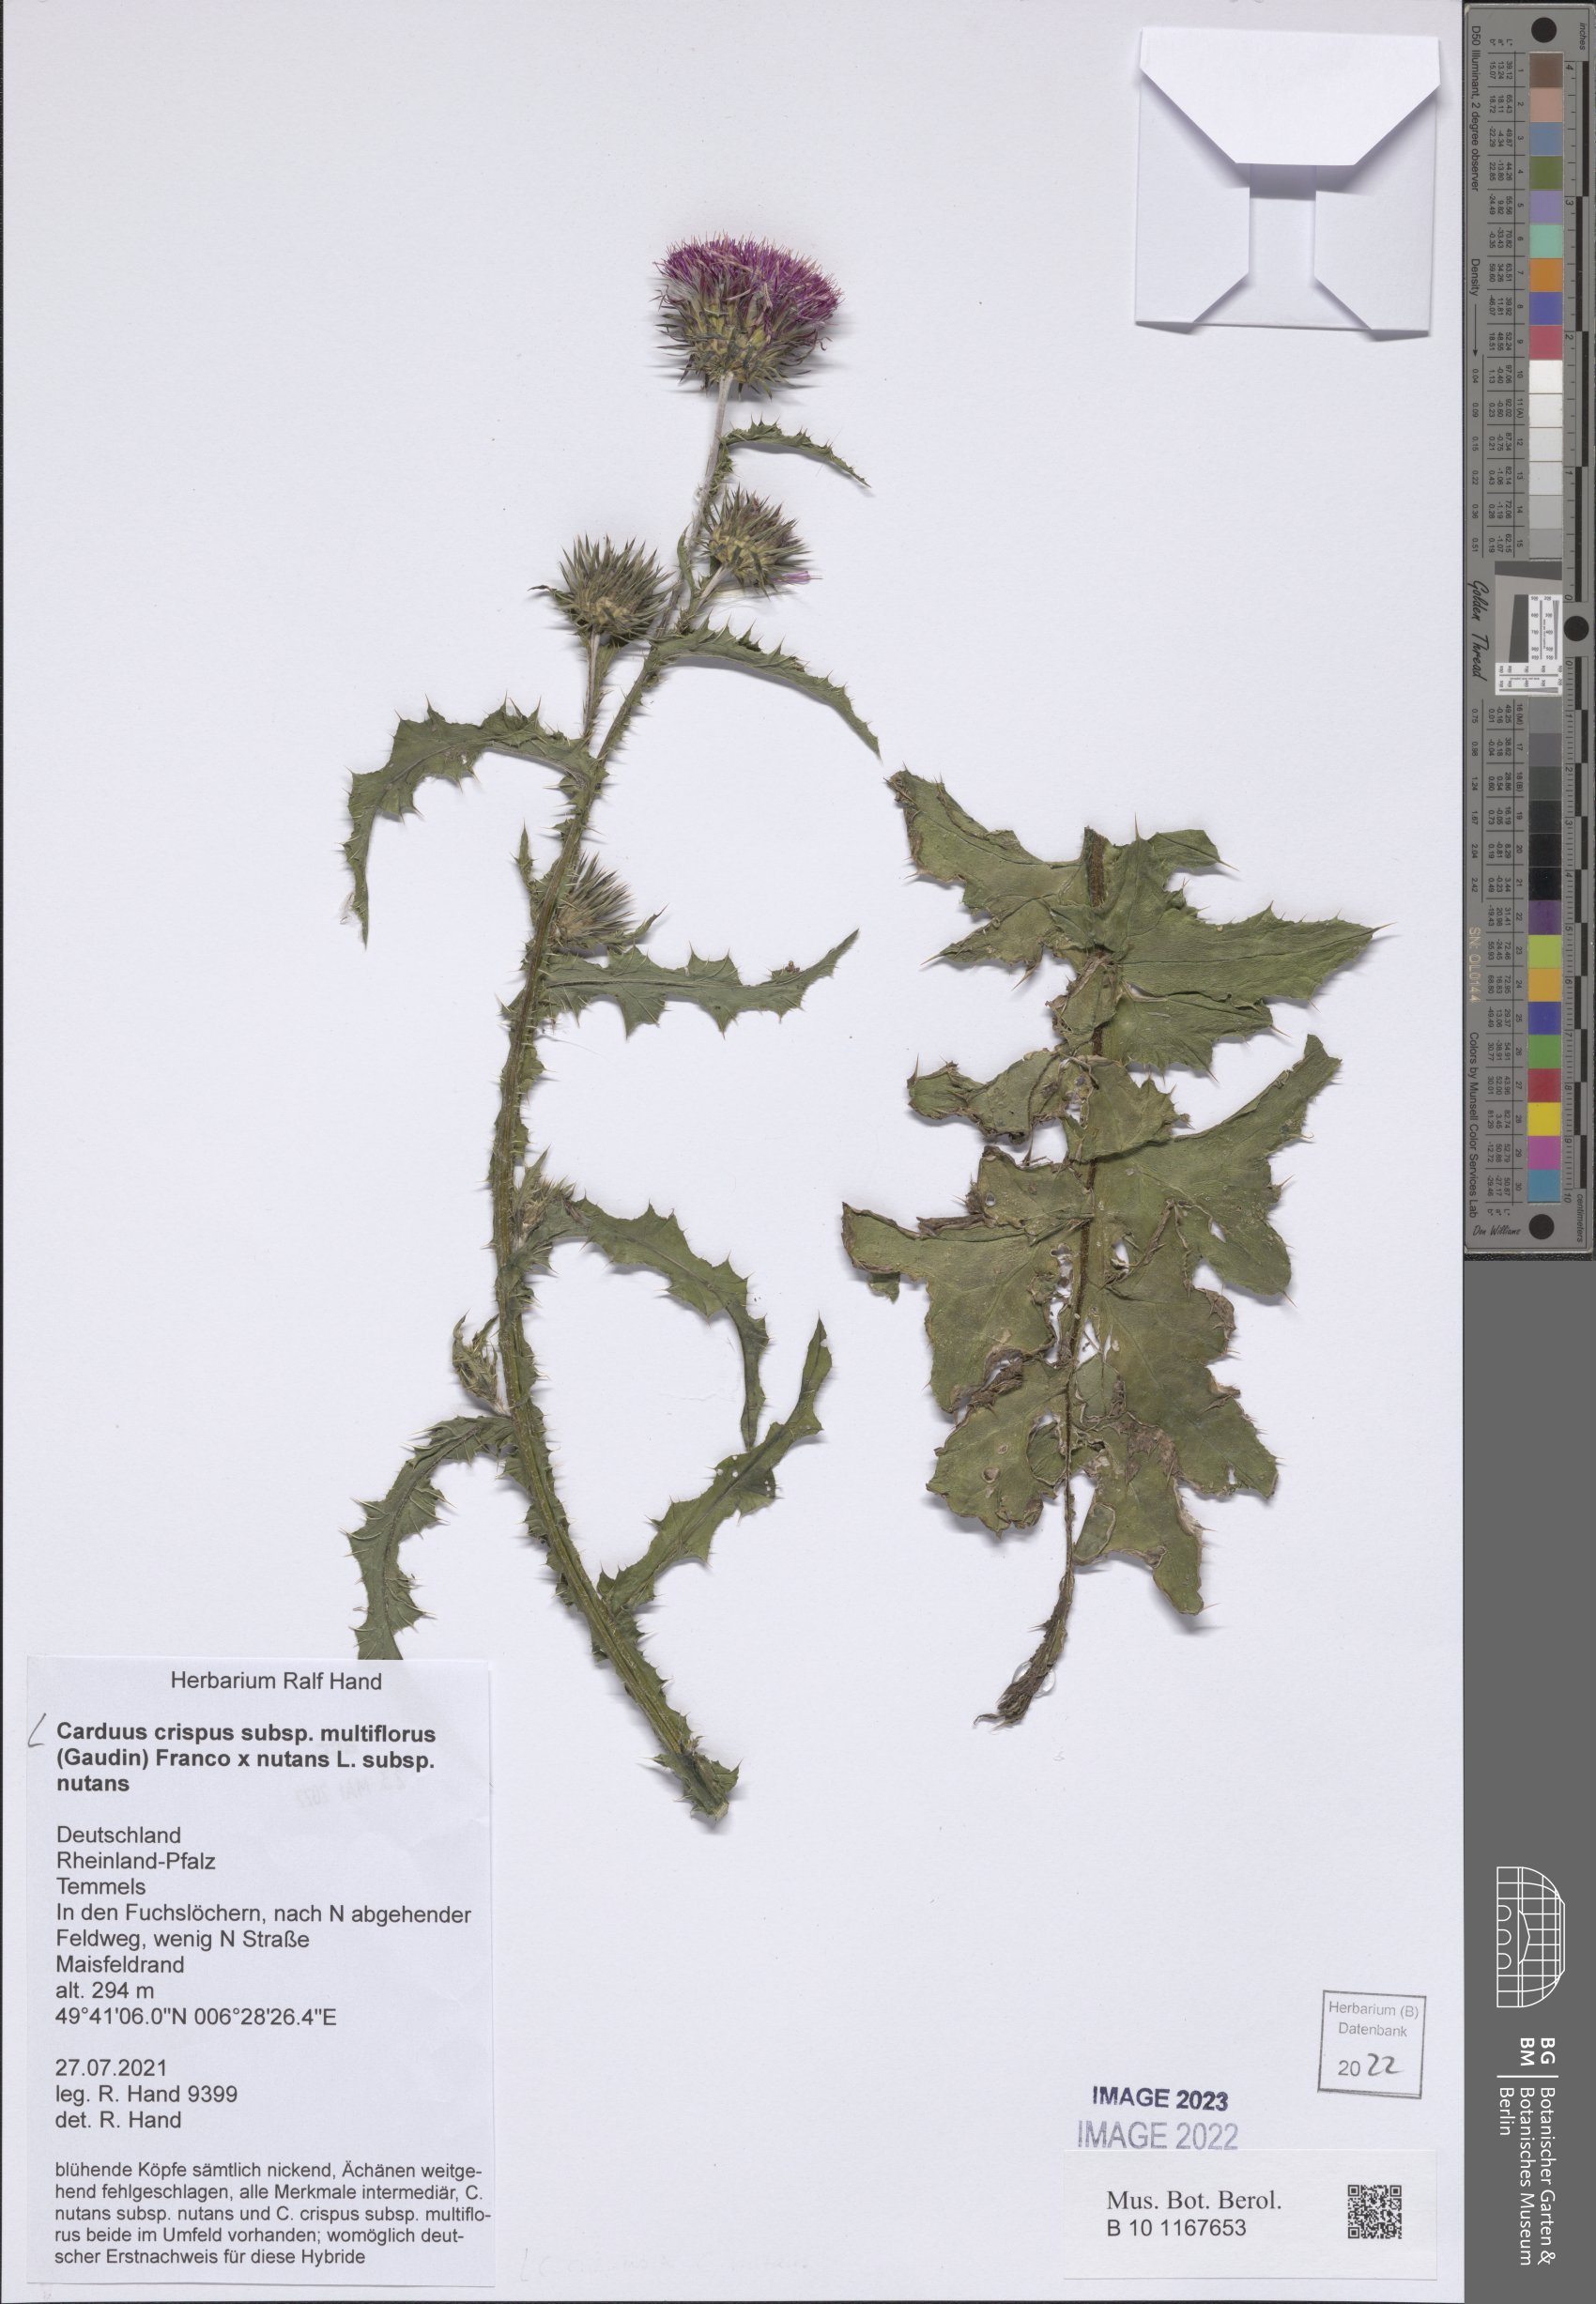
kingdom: Plantae
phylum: Tracheophyta
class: Magnoliopsida
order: Asterales
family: Asteraceae
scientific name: Asteraceae
